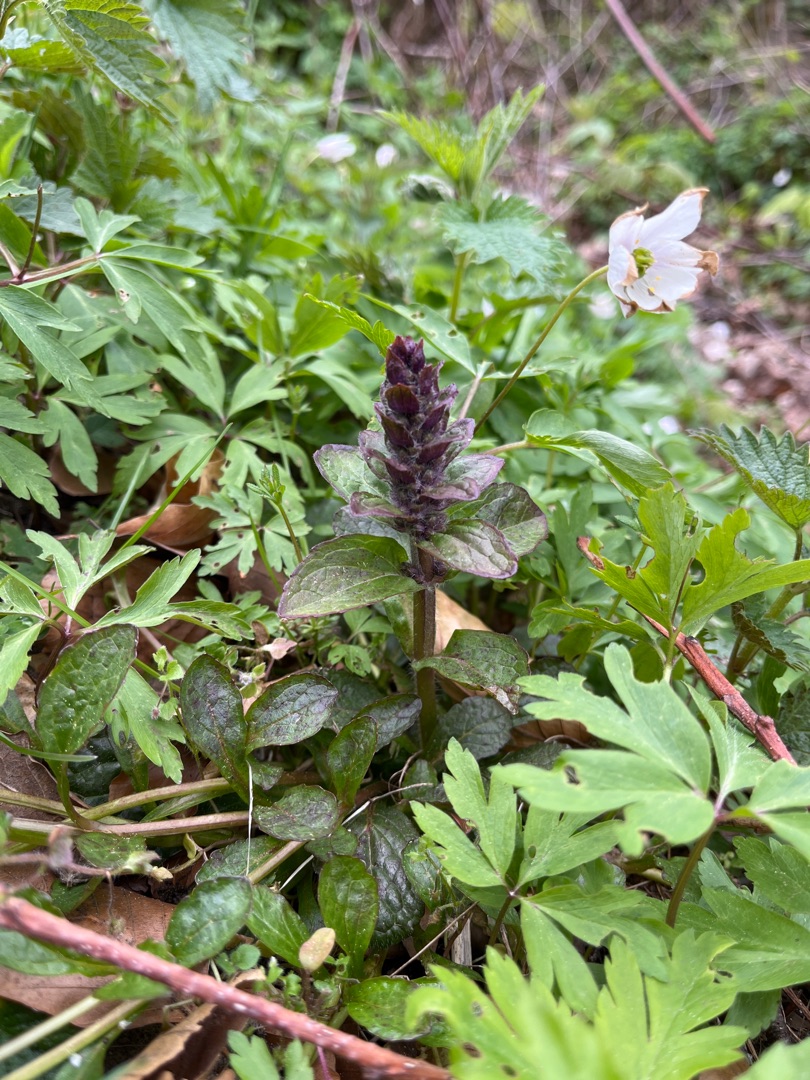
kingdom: Plantae
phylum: Tracheophyta
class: Magnoliopsida
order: Lamiales
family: Lamiaceae
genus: Ajuga
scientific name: Ajuga reptans
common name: Krybende læbeløs
